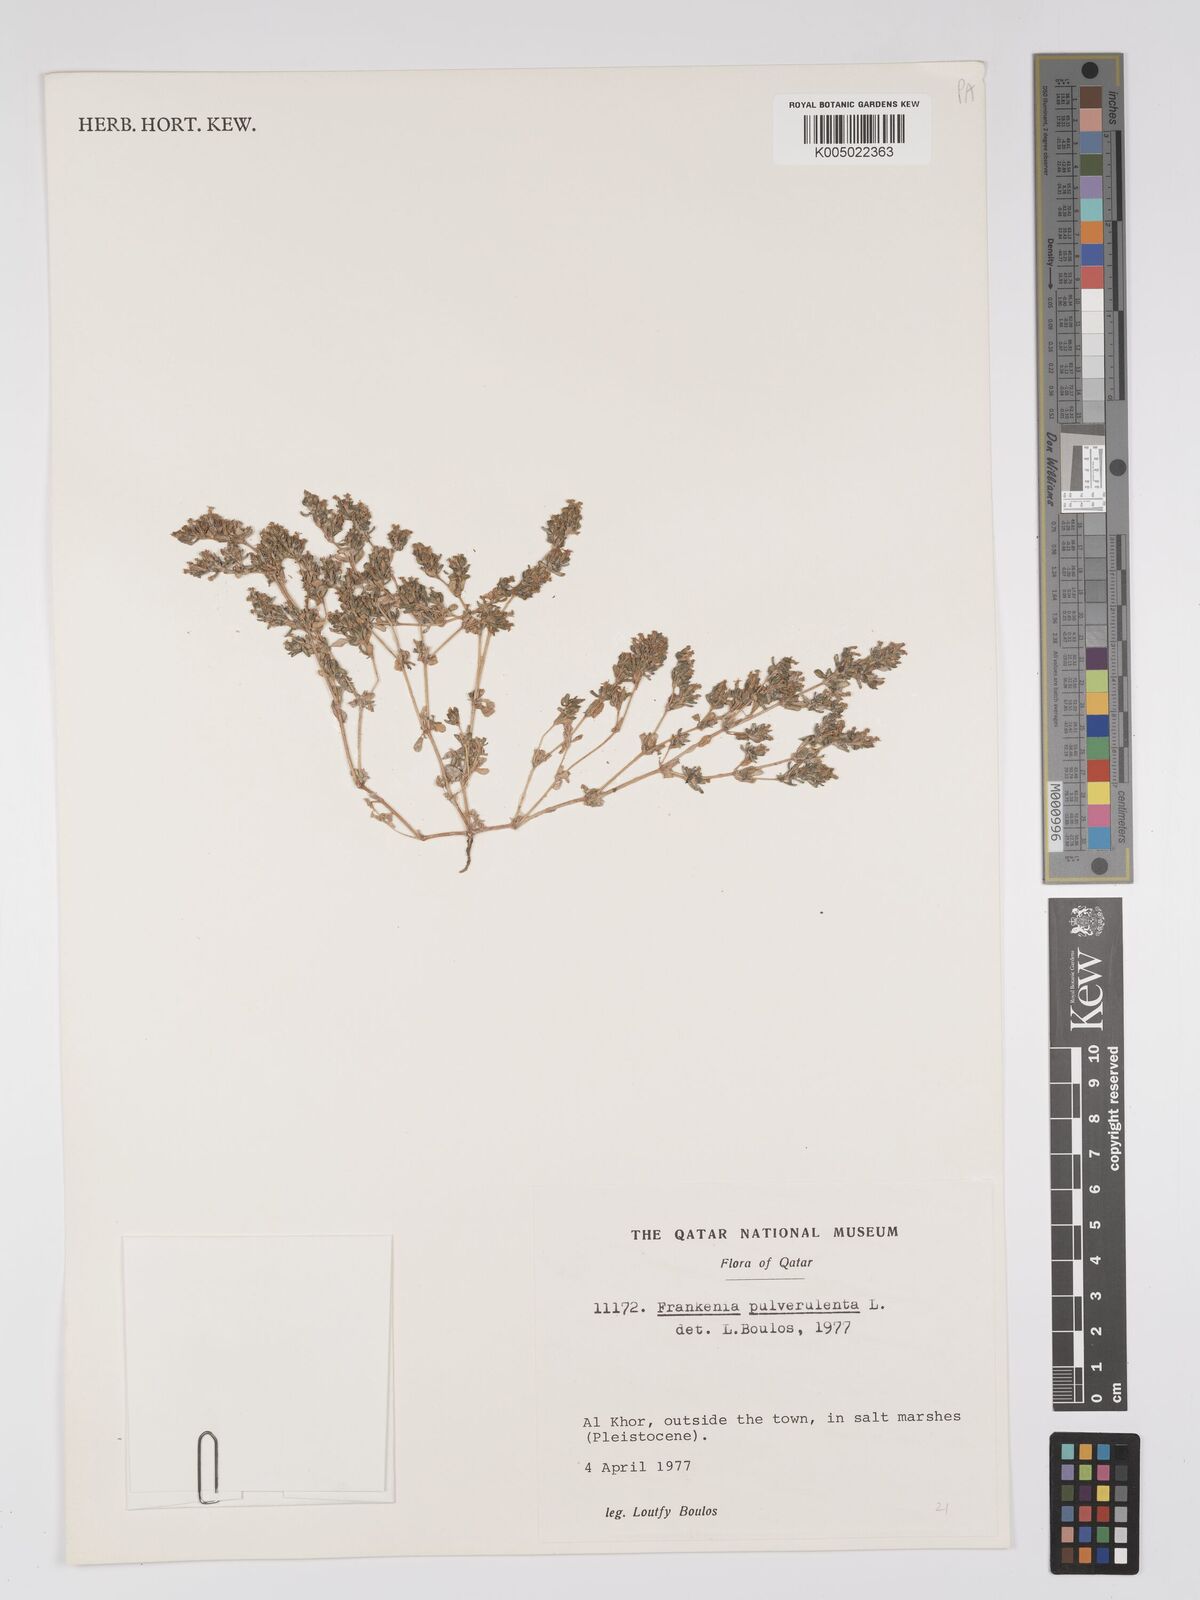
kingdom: Plantae
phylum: Tracheophyta
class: Magnoliopsida
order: Caryophyllales
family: Frankeniaceae
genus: Frankenia
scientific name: Frankenia pulverulenta
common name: European seaheath
